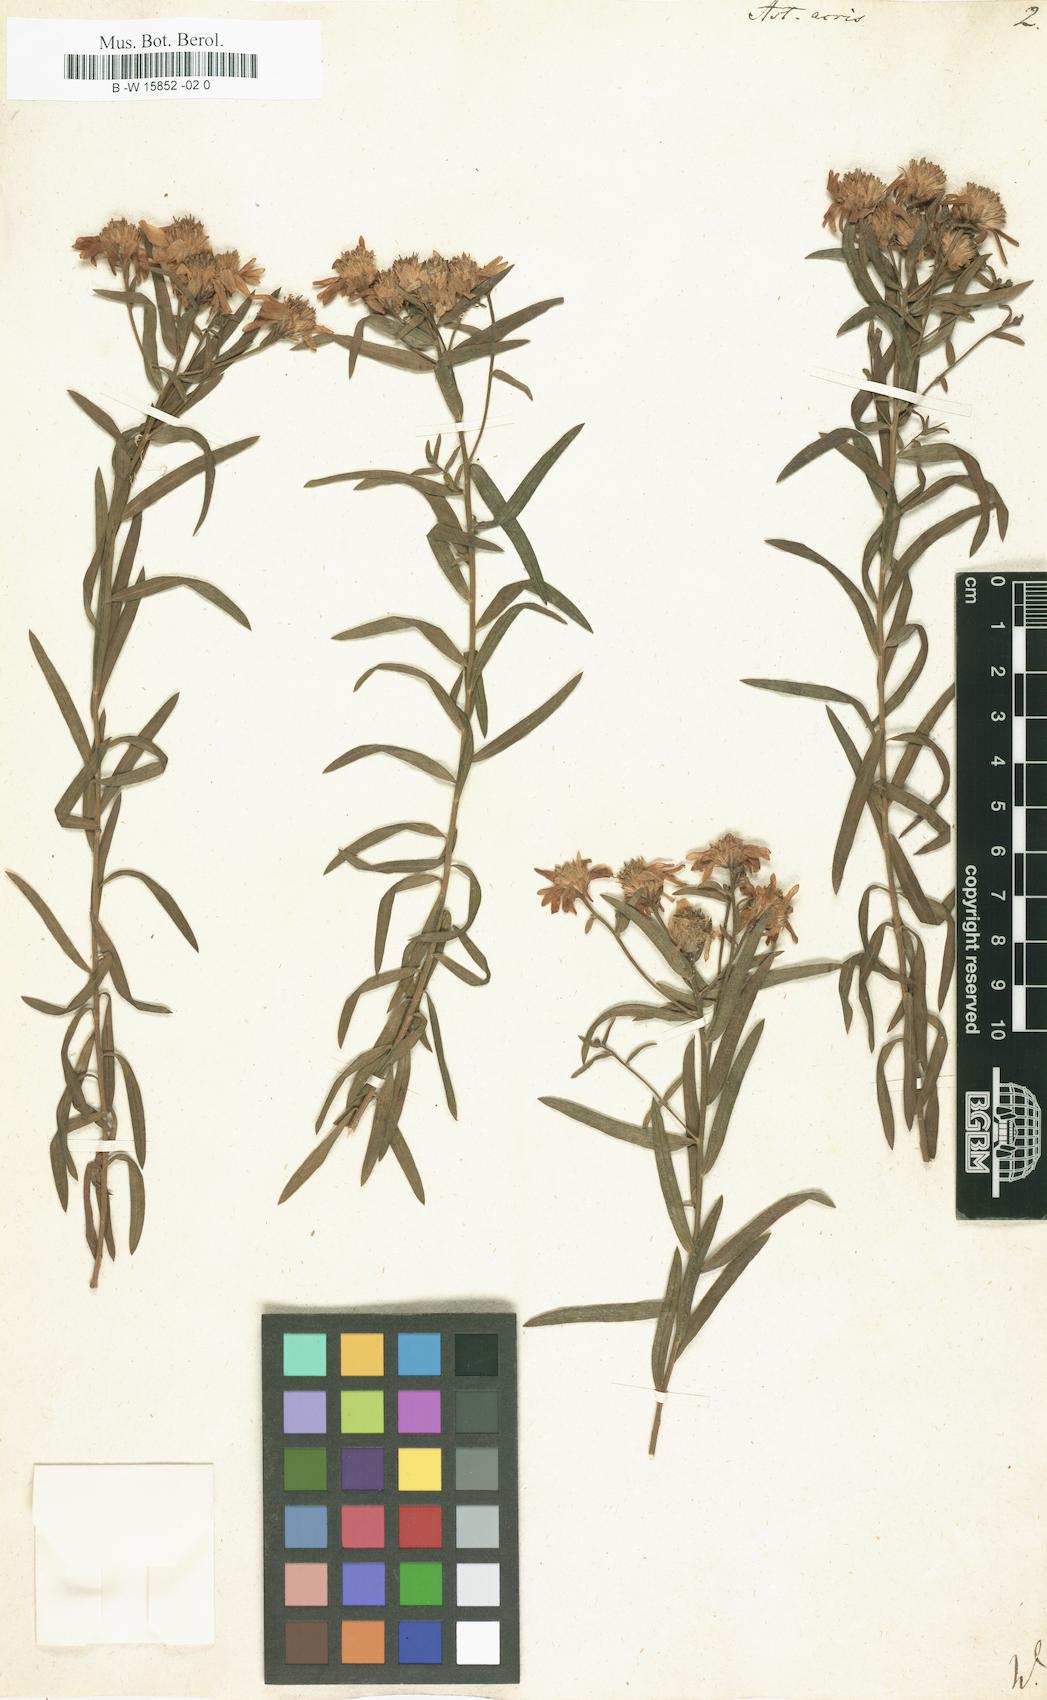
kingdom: Plantae
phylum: Tracheophyta
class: Magnoliopsida
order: Asterales
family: Asteraceae
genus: Aster
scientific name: Aster acris
